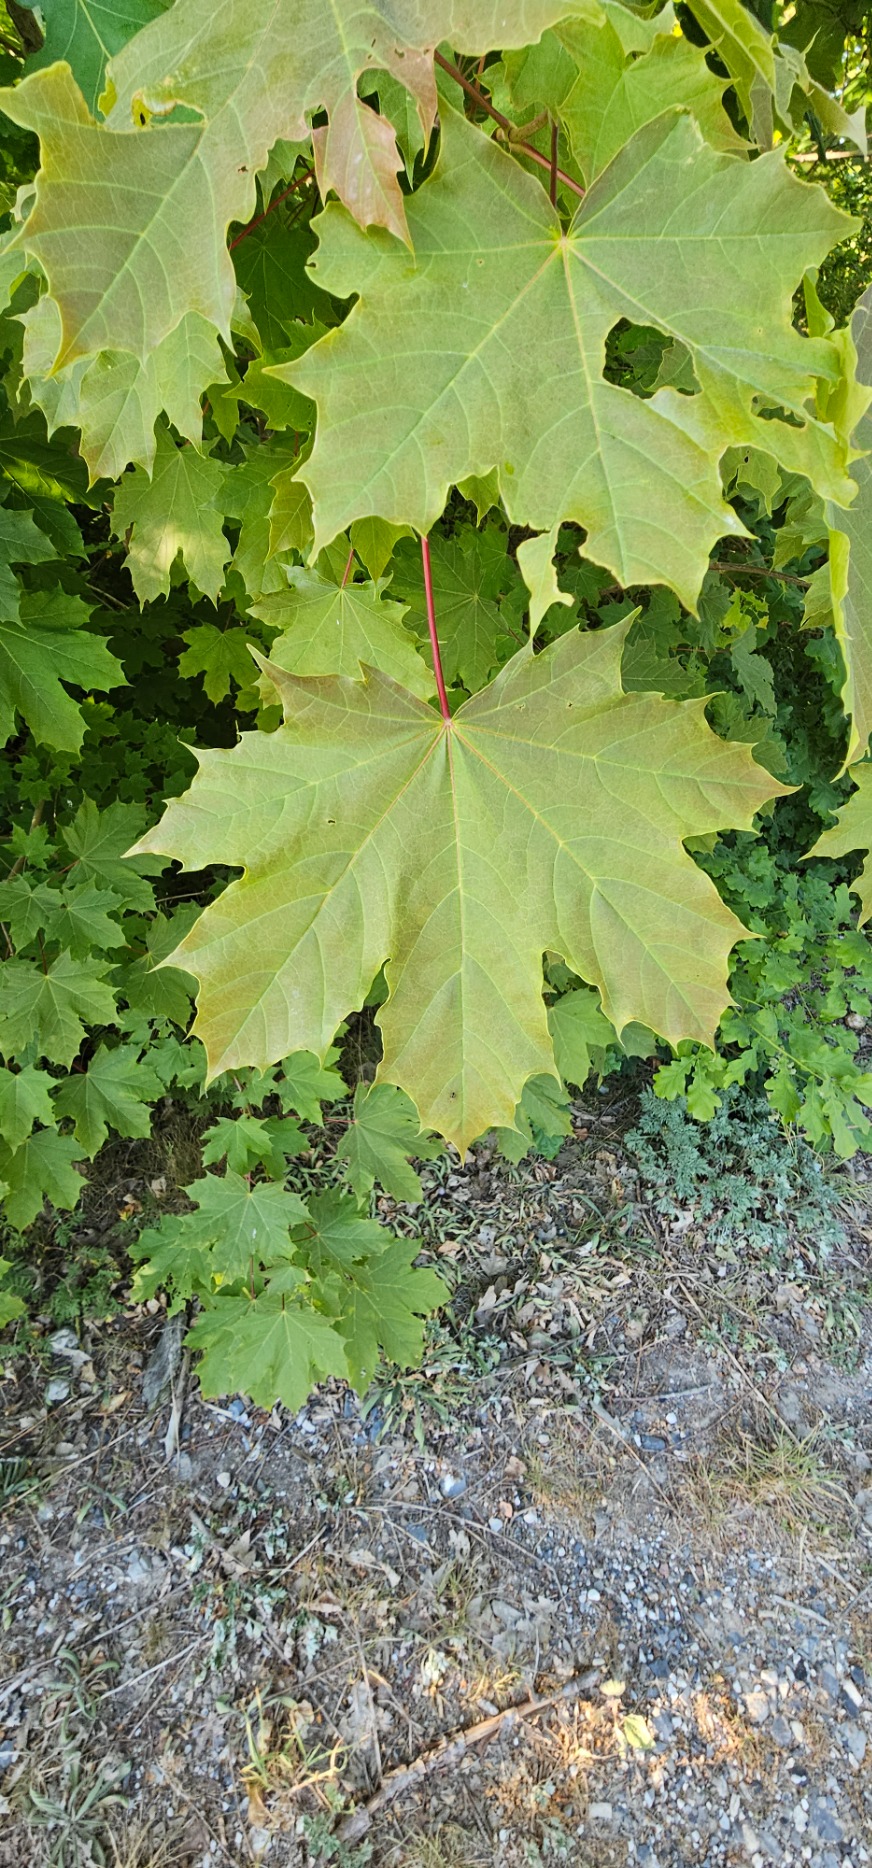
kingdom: Plantae
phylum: Tracheophyta
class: Magnoliopsida
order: Sapindales
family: Sapindaceae
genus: Acer
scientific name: Acer platanoides
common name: Spids-løn
